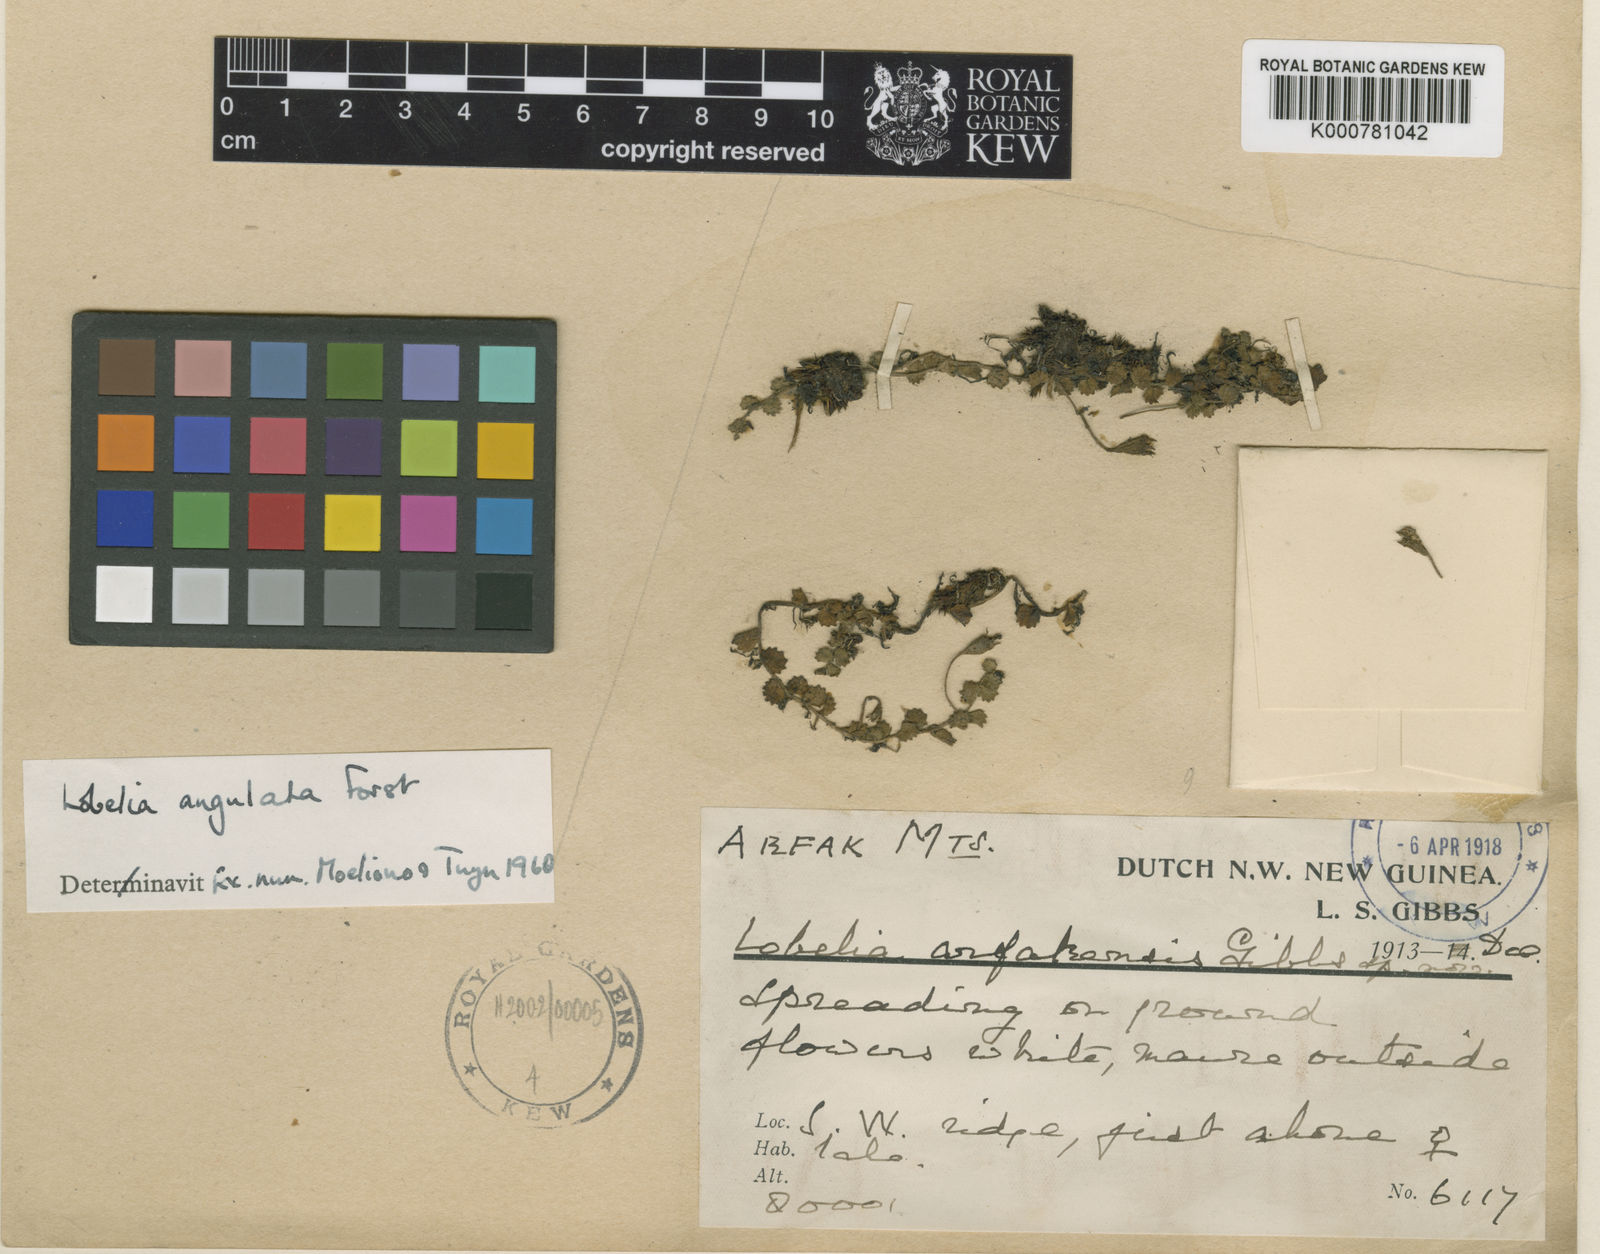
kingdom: Plantae
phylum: Tracheophyta
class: Magnoliopsida
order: Asterales
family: Campanulaceae
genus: Lobelia
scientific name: Lobelia angulata
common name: Lawn lobelia
